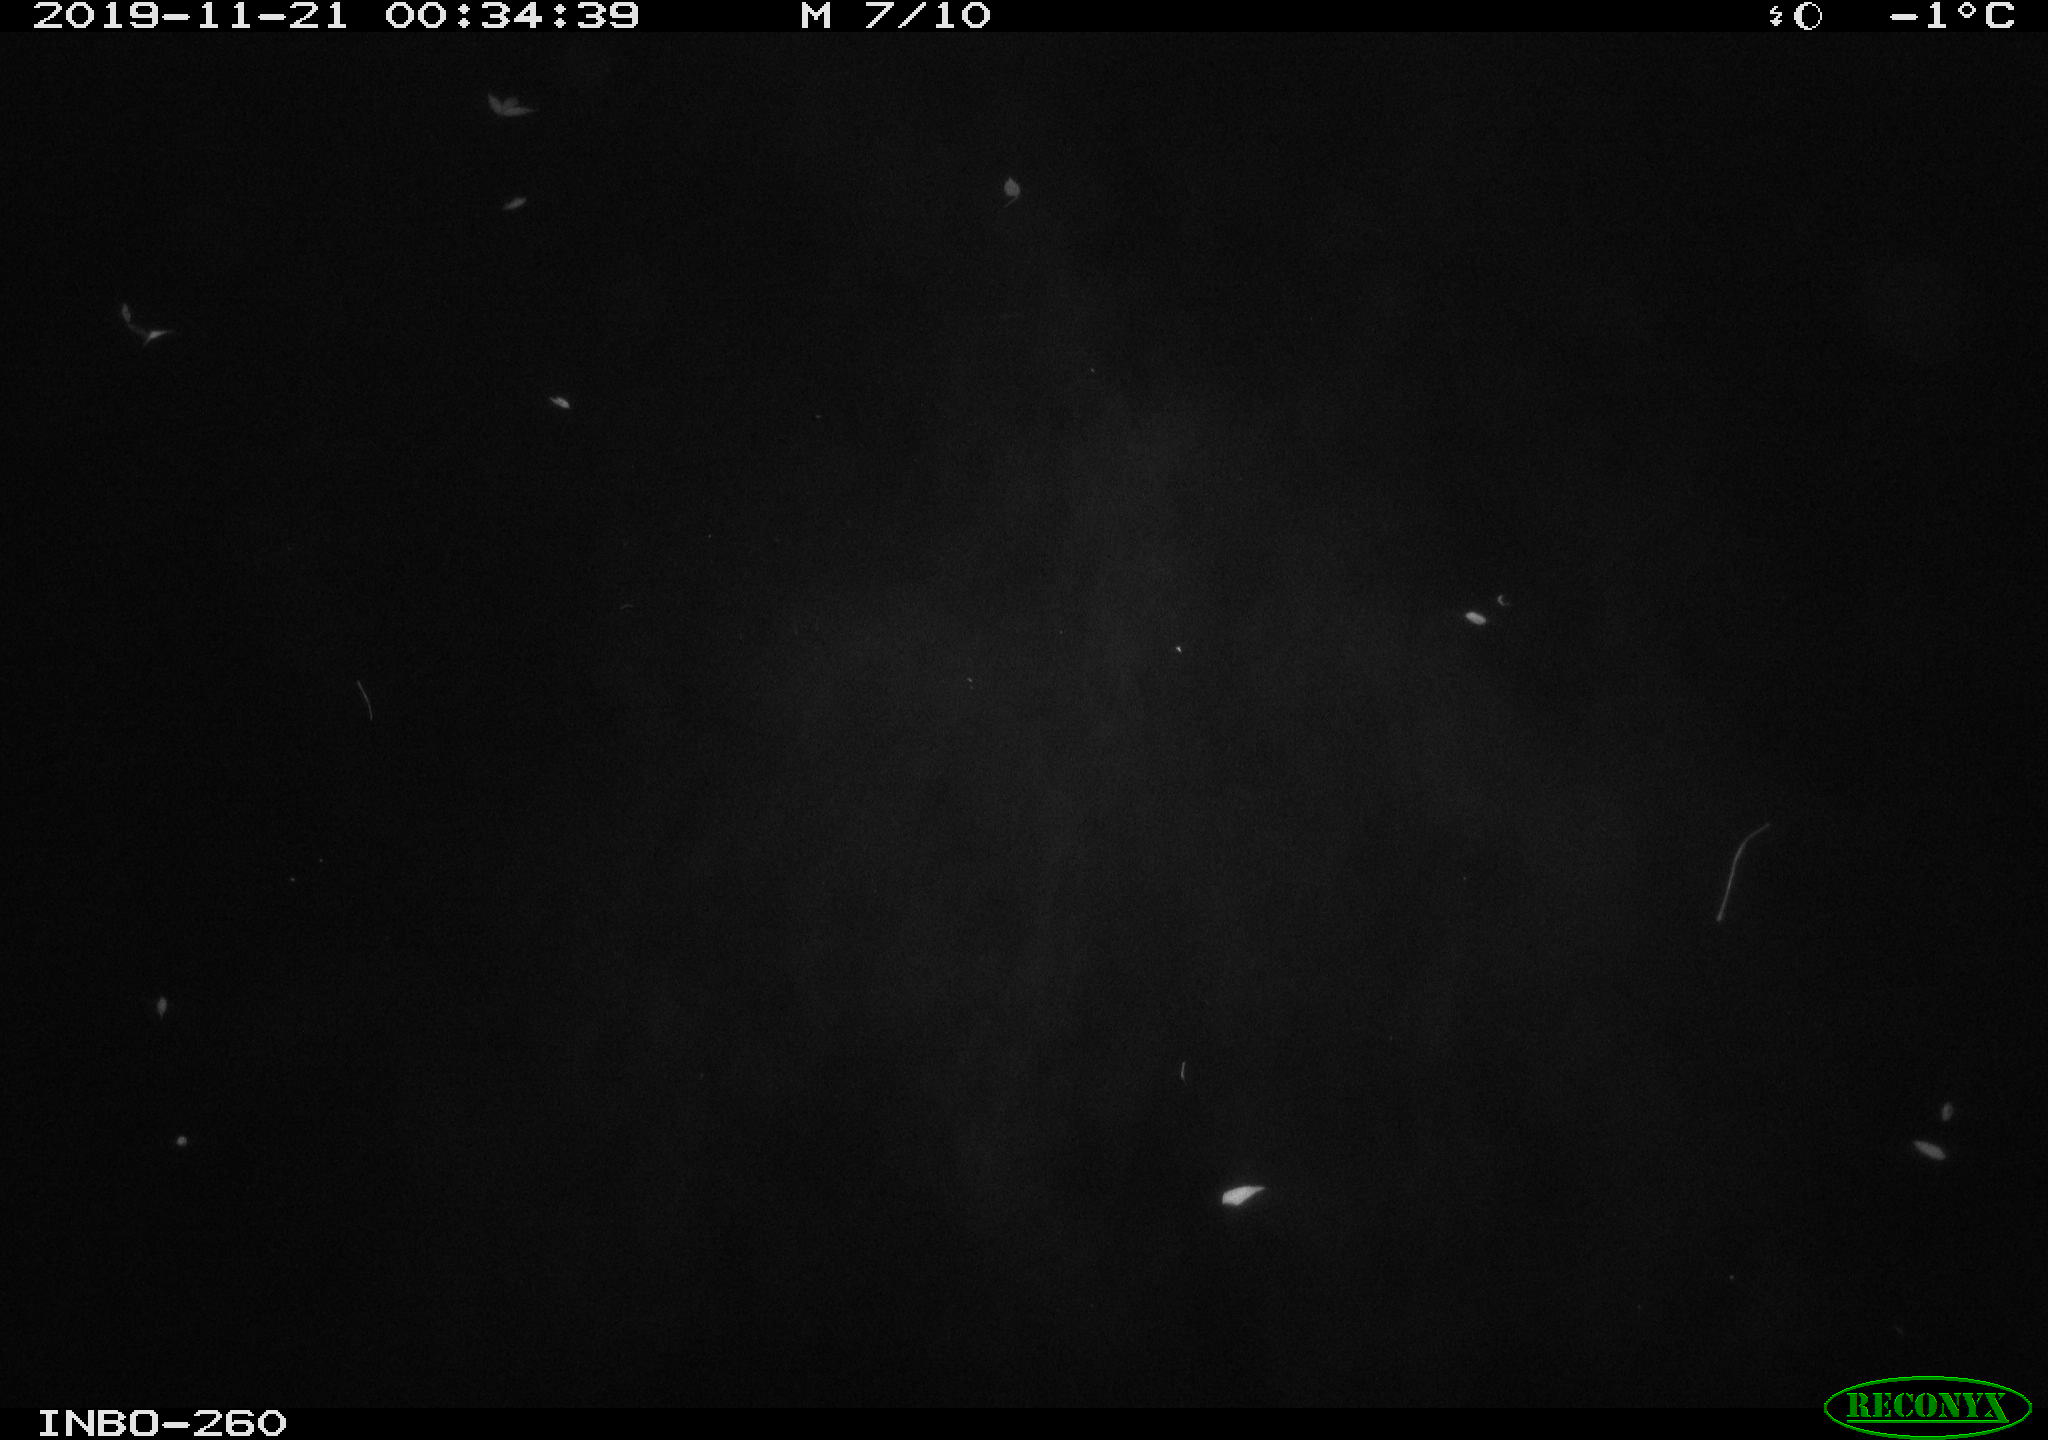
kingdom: Animalia
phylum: Chordata
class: Aves
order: Anseriformes
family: Anatidae
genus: Anas
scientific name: Anas platyrhynchos
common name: Mallard
